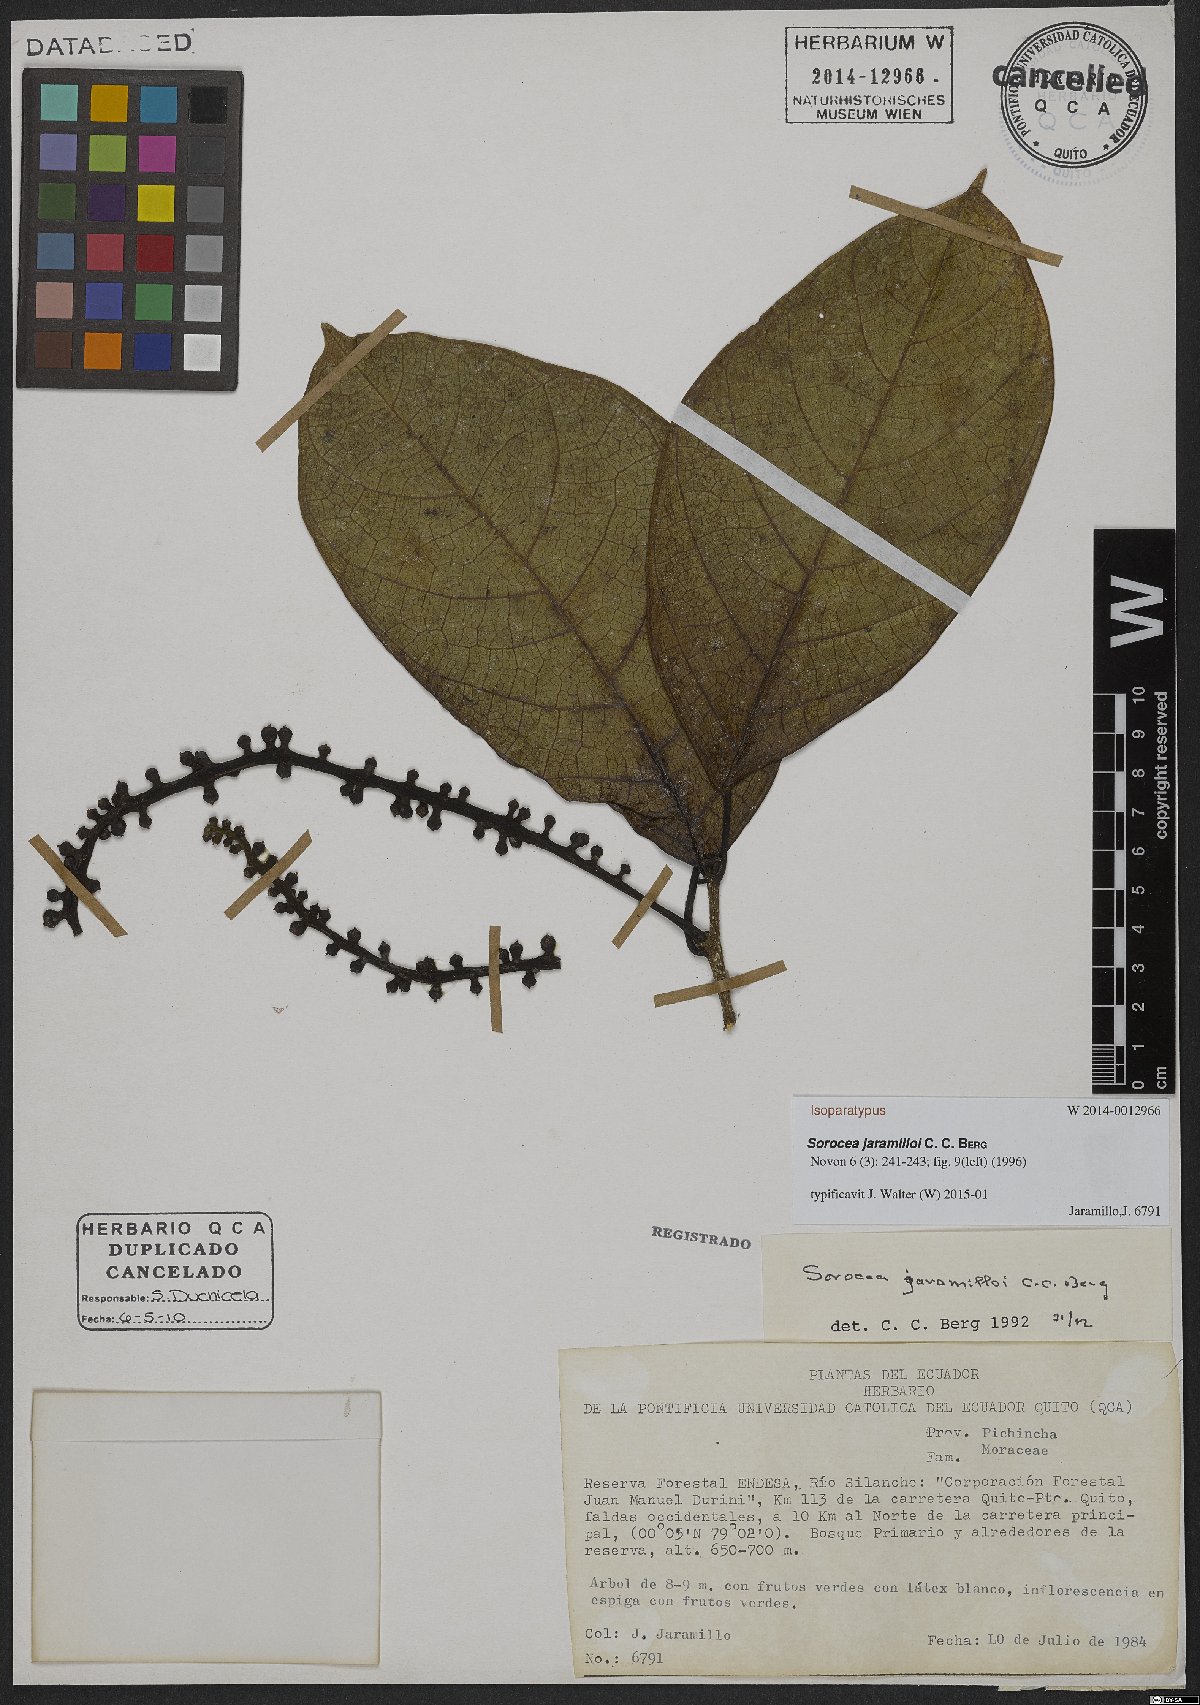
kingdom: Plantae
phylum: Tracheophyta
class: Magnoliopsida
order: Rosales
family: Moraceae
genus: Sorocea
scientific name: Sorocea jaramilloi
